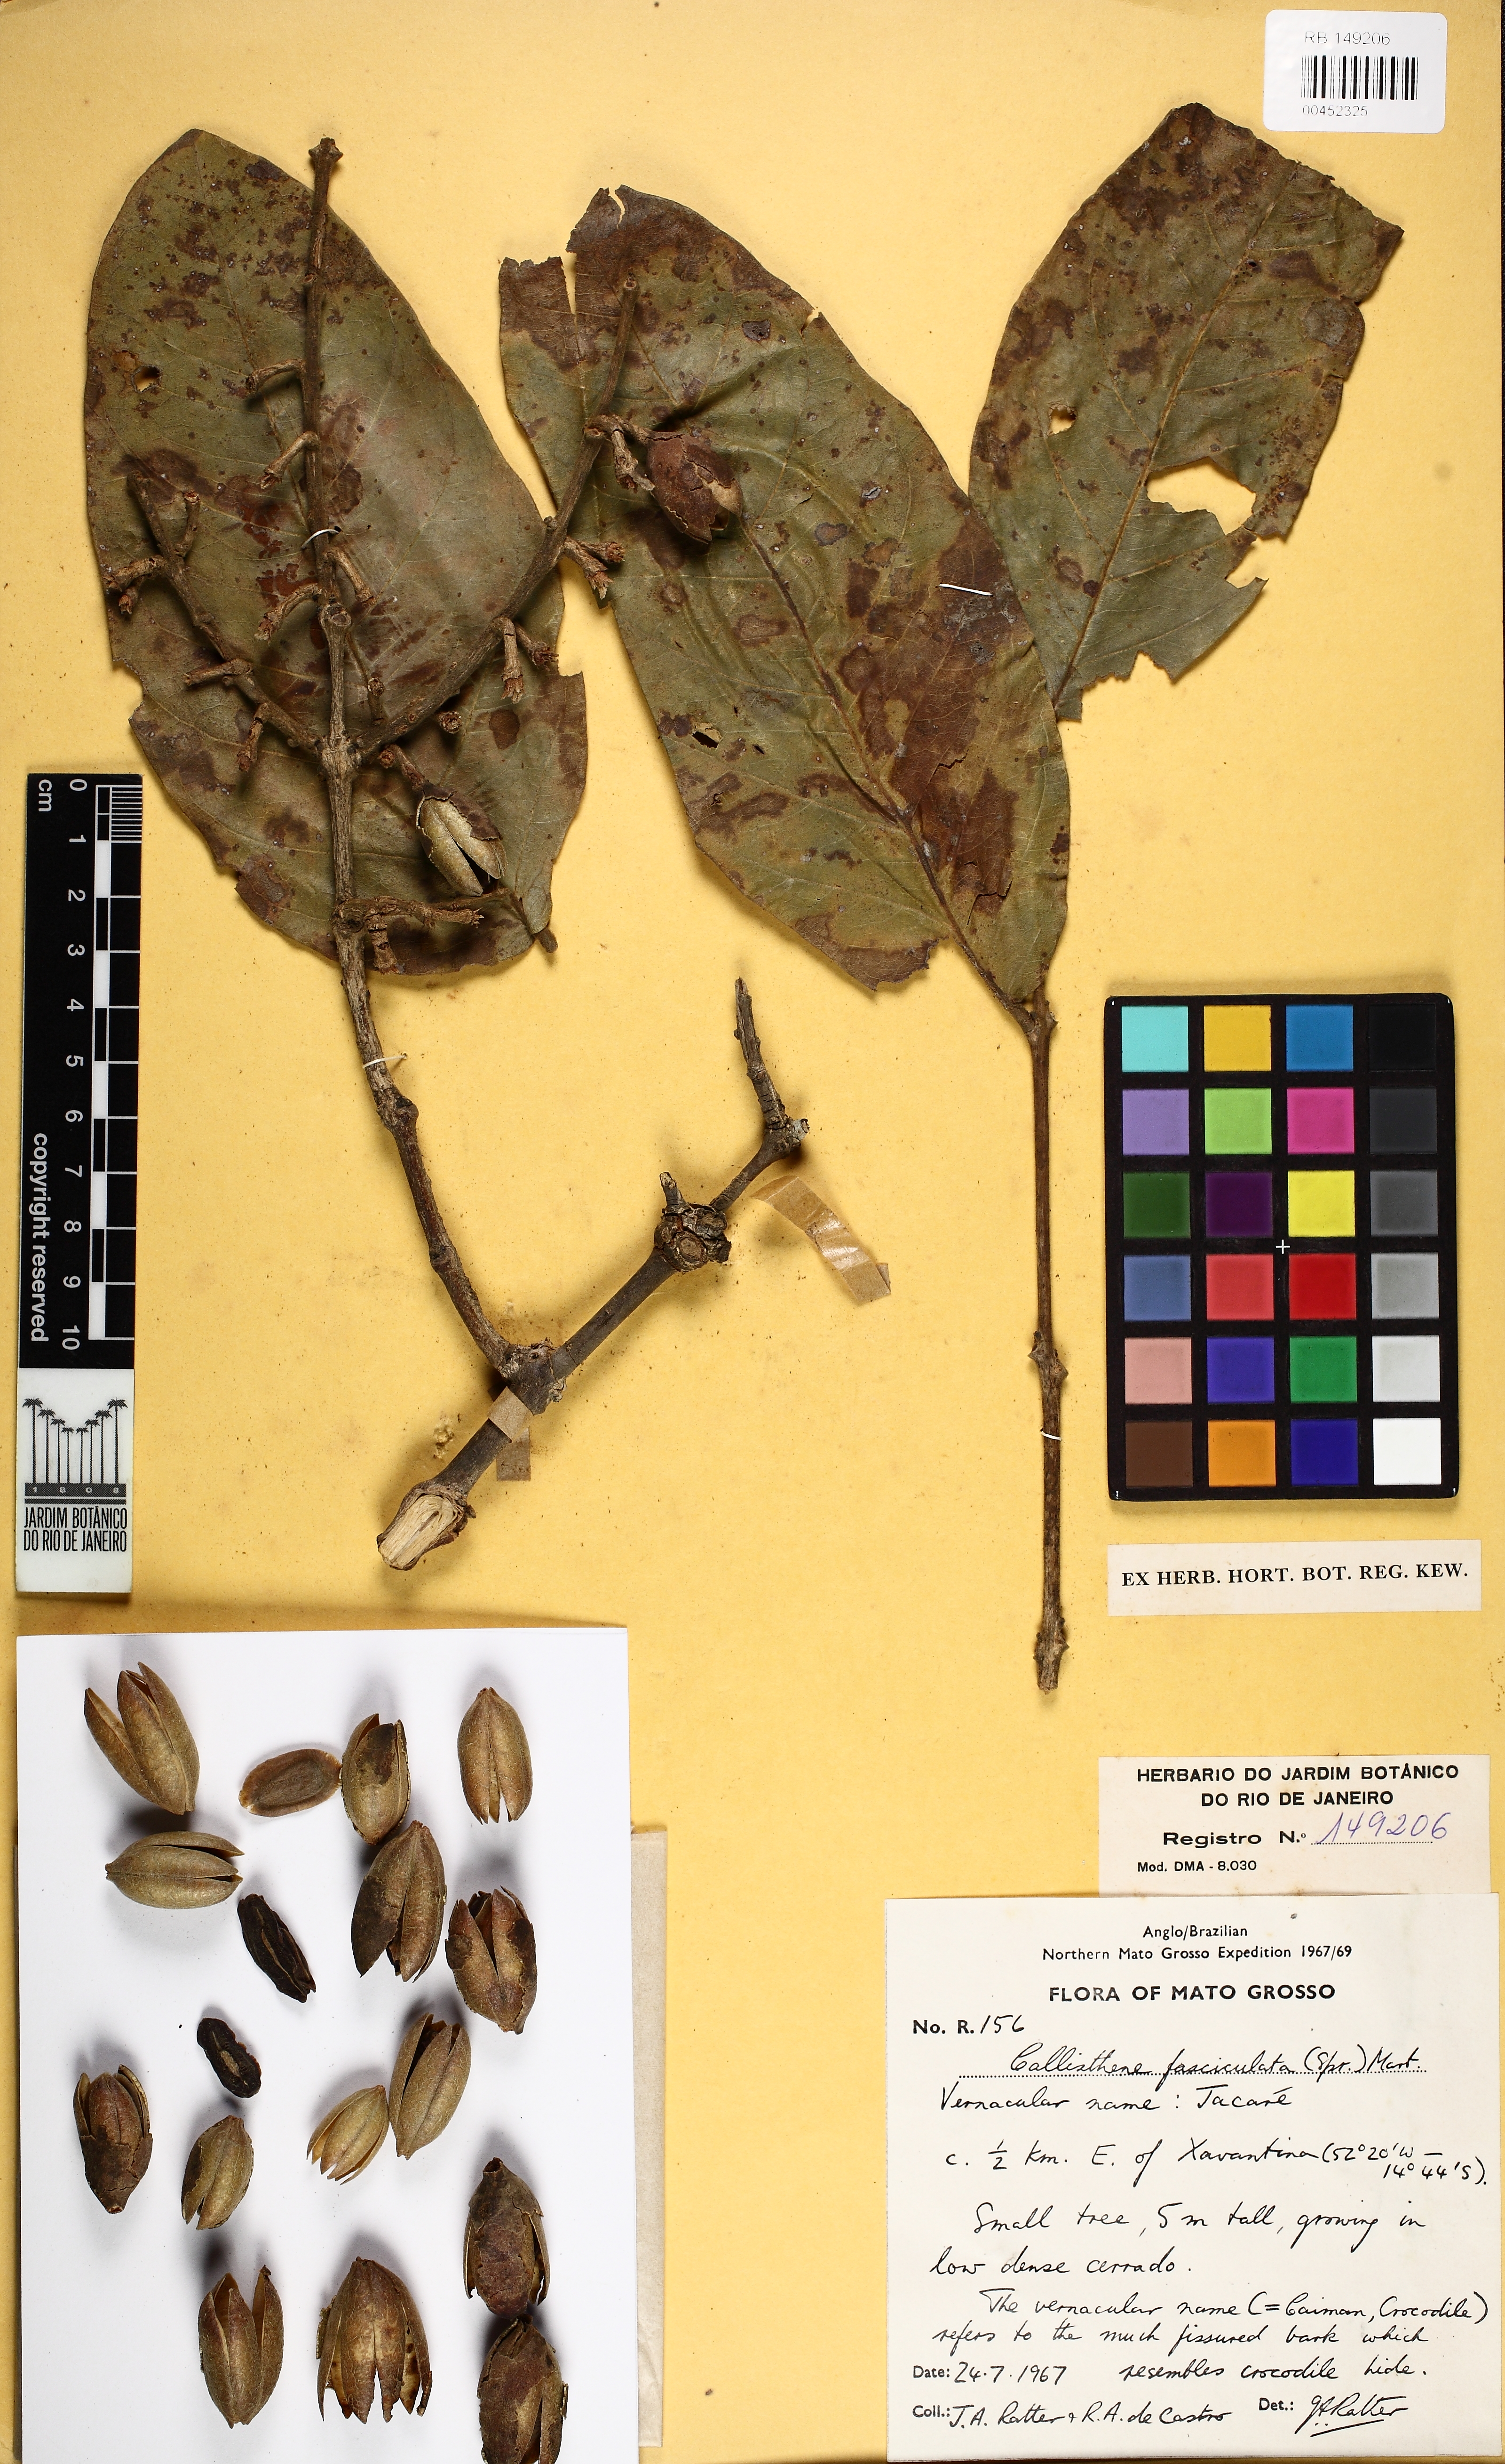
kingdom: Plantae
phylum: Tracheophyta
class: Magnoliopsida
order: Myrtales
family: Vochysiaceae
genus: Callisthene
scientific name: Callisthene fasciculata
